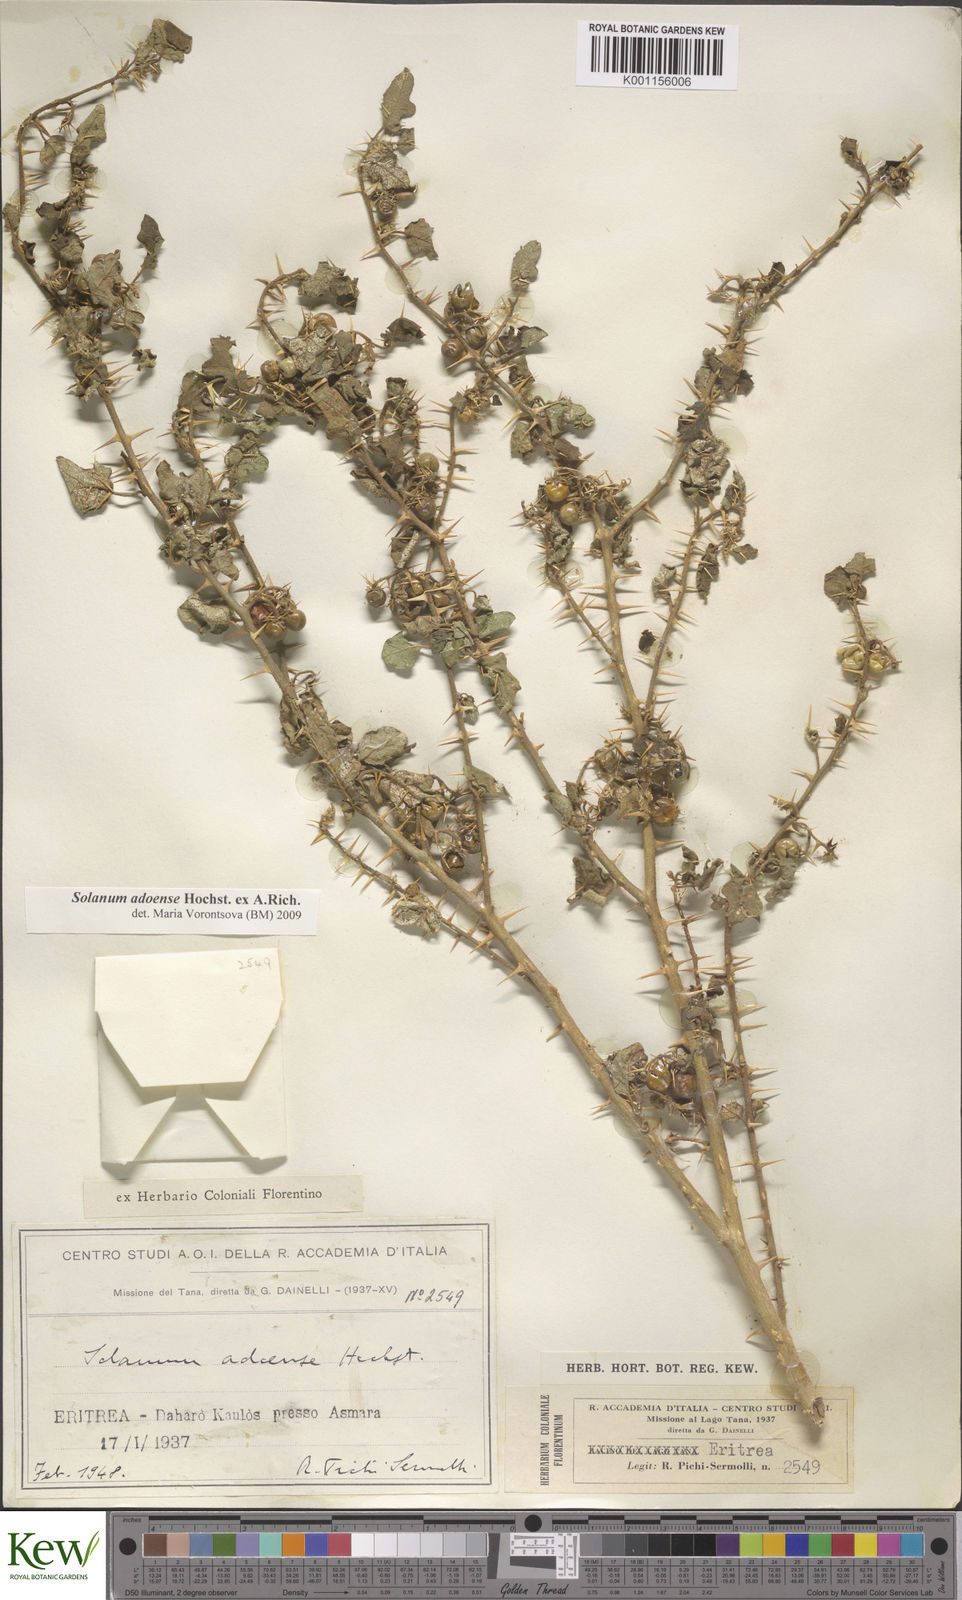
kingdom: Plantae
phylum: Tracheophyta
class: Magnoliopsida
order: Solanales
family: Solanaceae
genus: Solanum
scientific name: Solanum adoense
